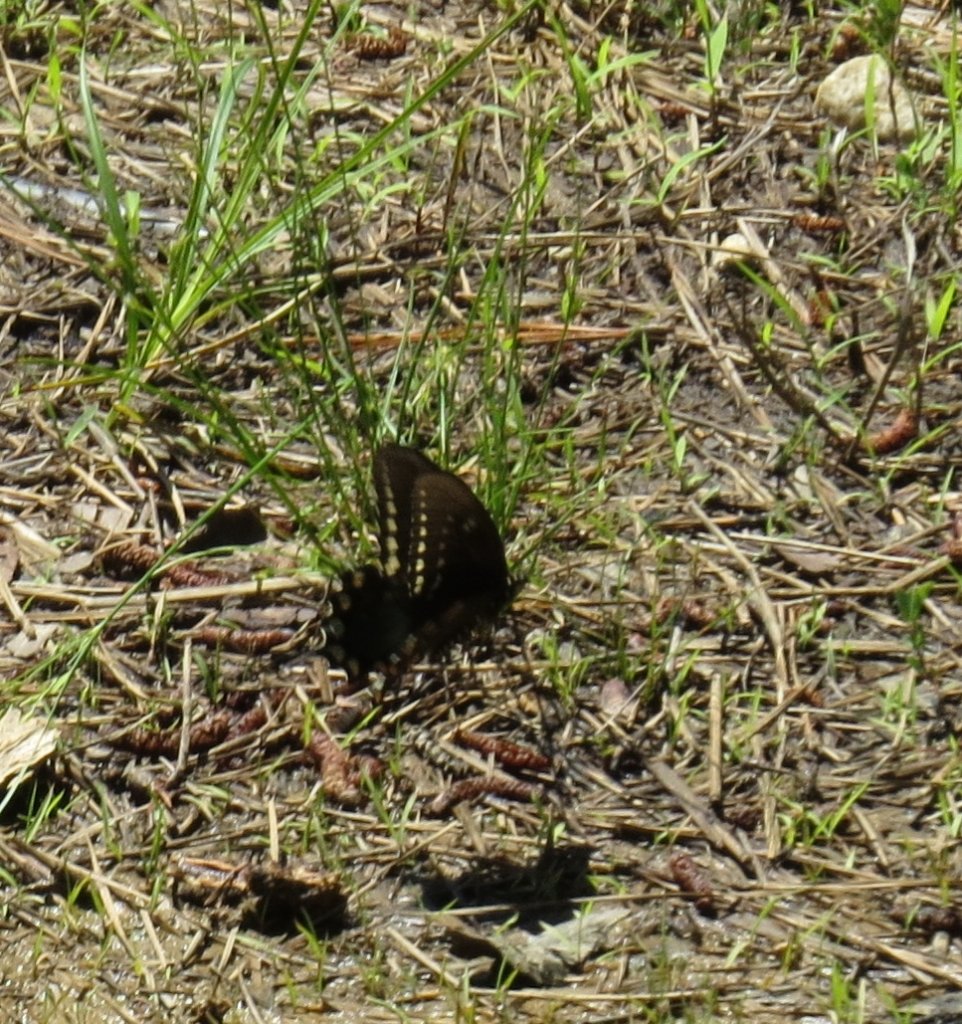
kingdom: Animalia
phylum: Arthropoda
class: Insecta
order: Lepidoptera
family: Papilionidae
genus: Pterourus
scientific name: Pterourus troilus
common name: Spicebush Swallowtail
